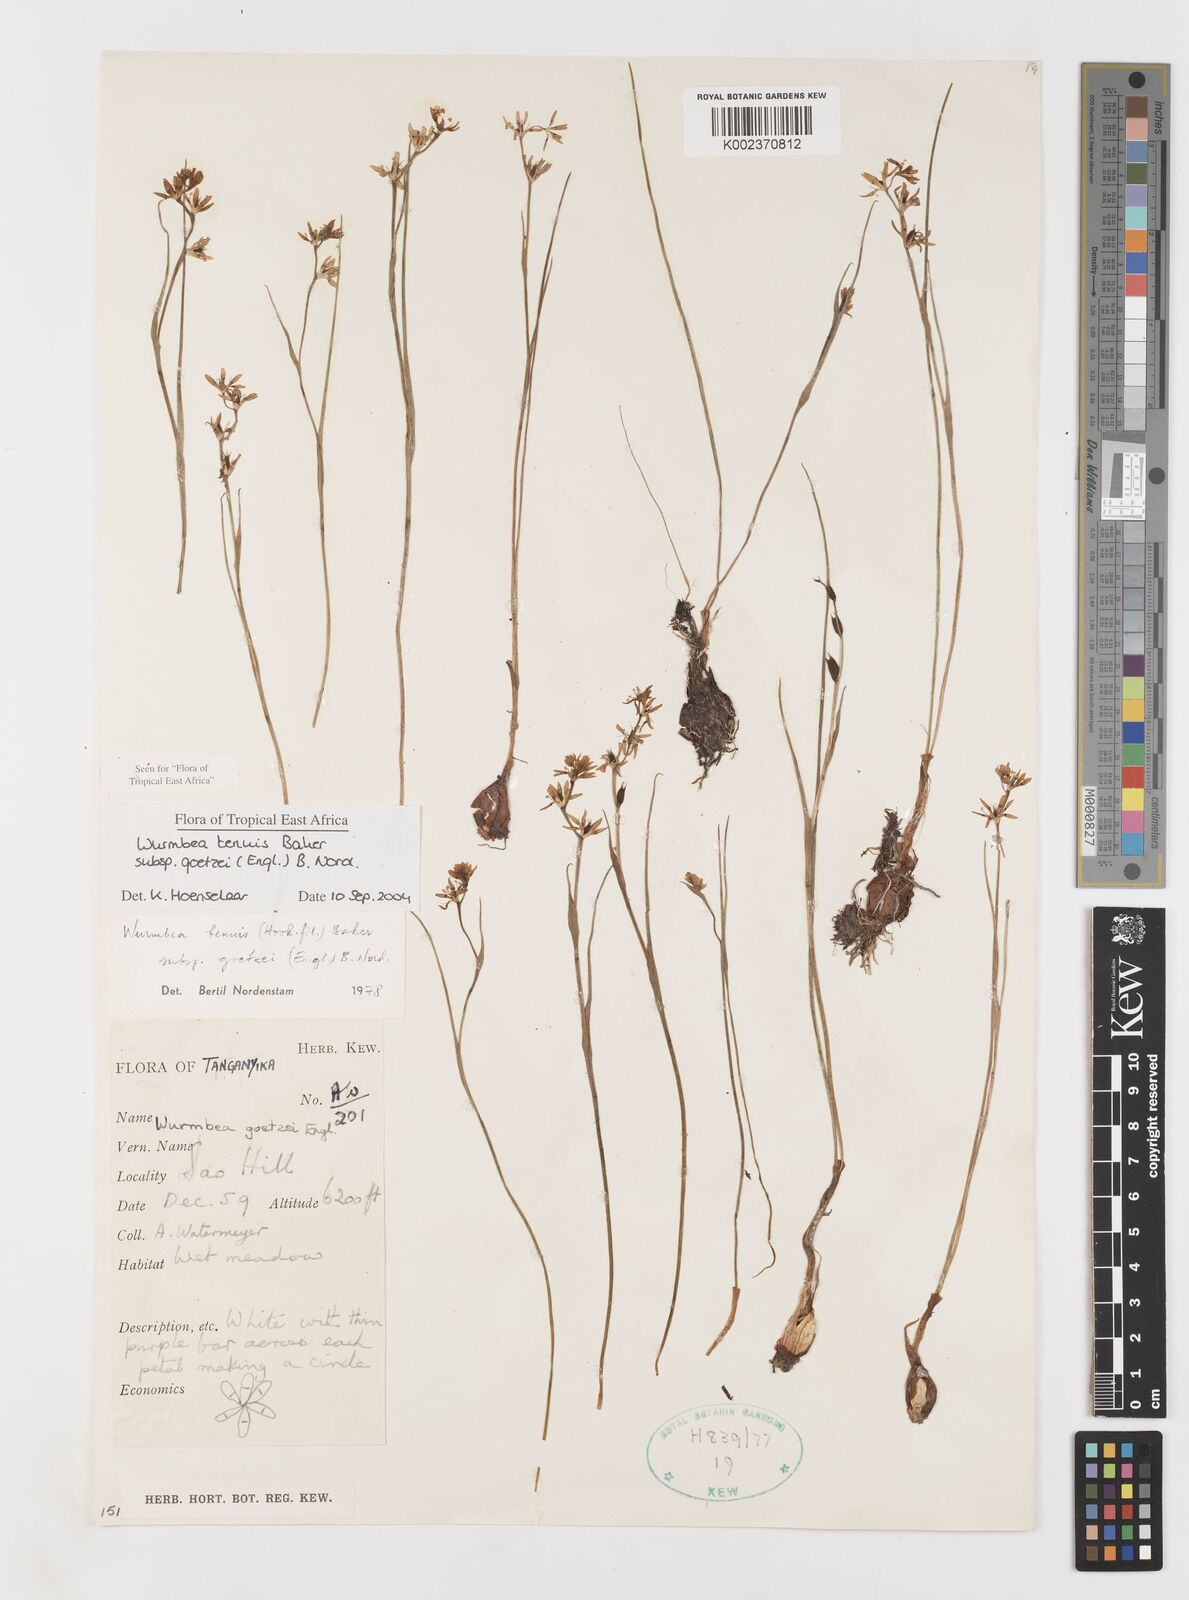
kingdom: Plantae
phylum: Tracheophyta
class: Liliopsida
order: Liliales
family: Colchicaceae
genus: Wurmbea
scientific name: Wurmbea tenuis
